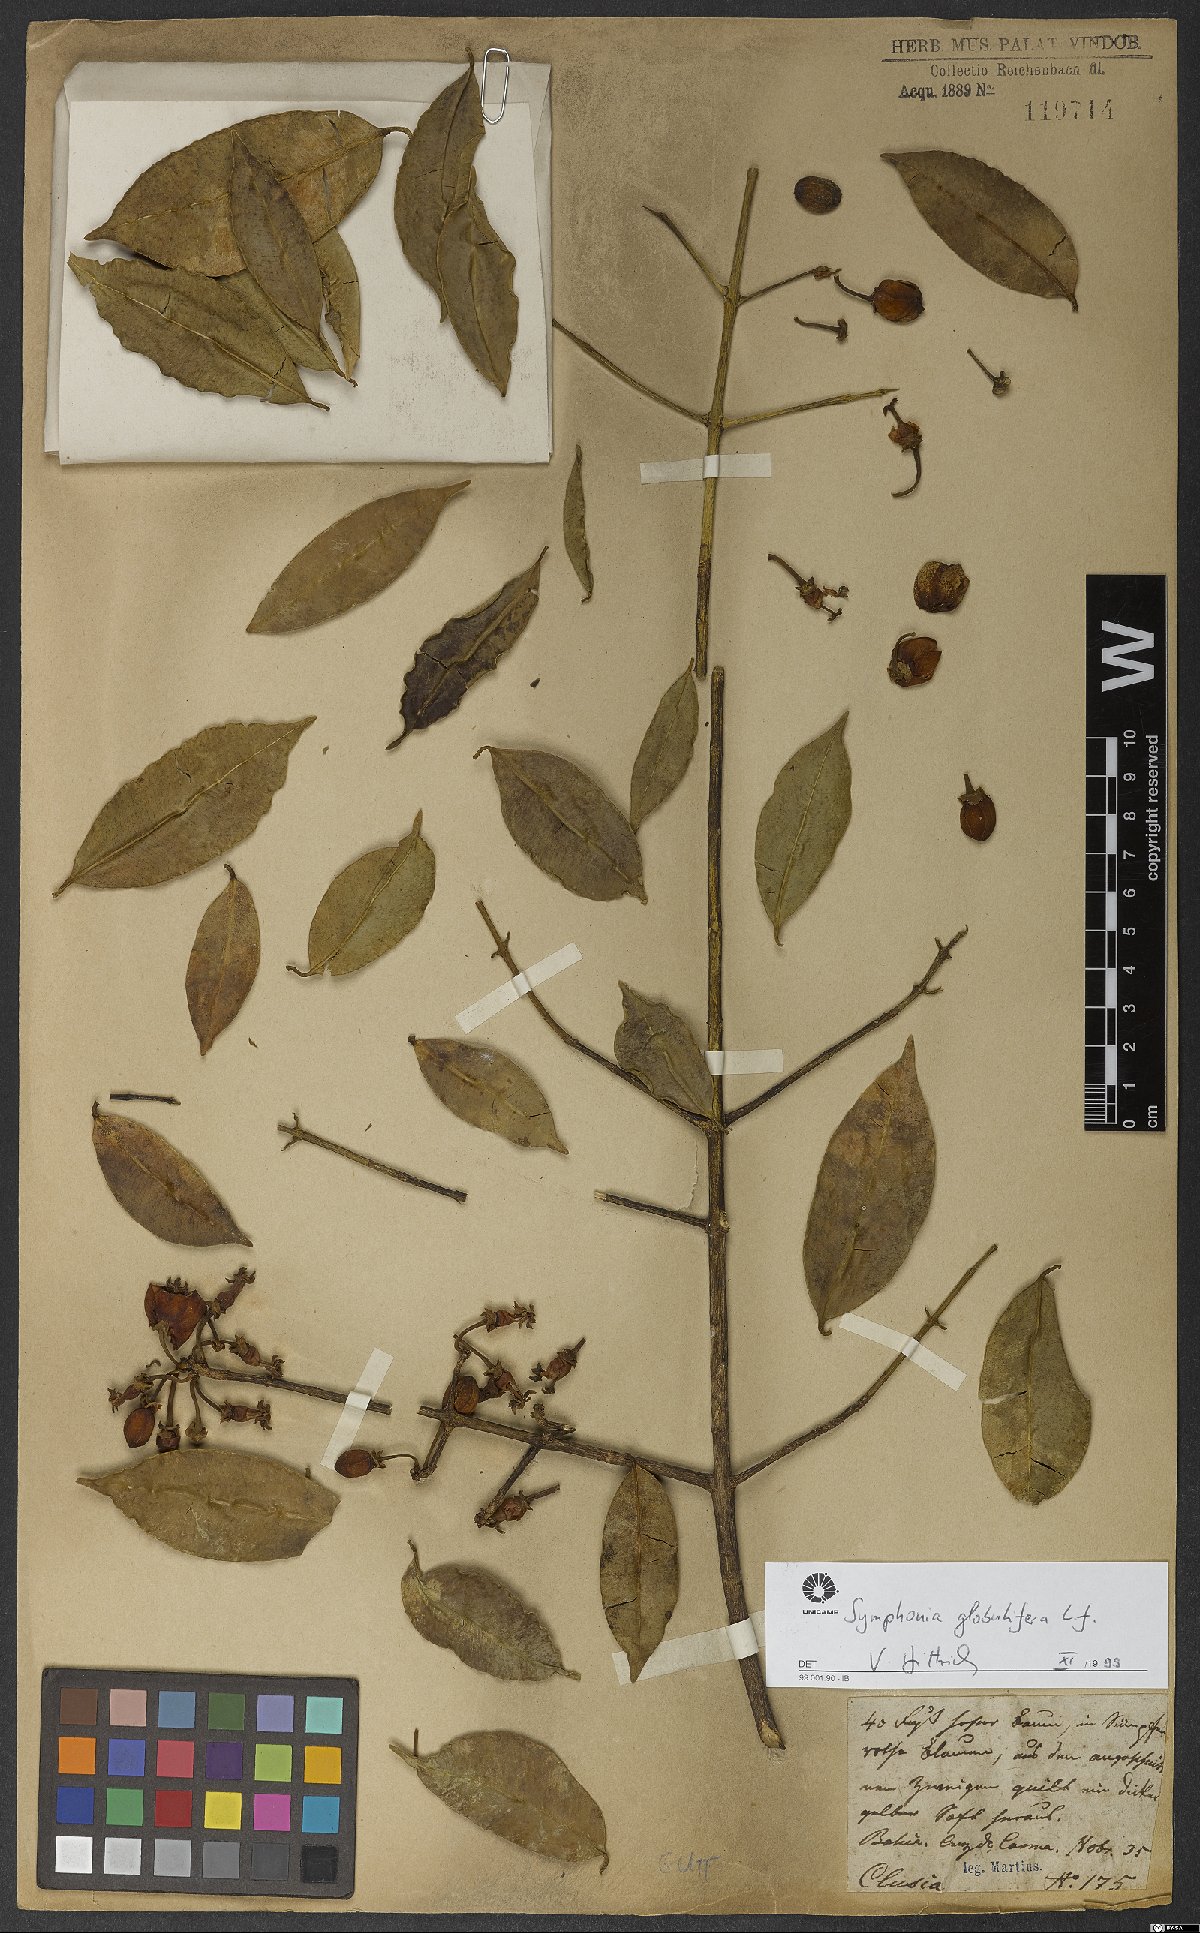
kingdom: Plantae
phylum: Tracheophyta
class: Magnoliopsida
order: Malpighiales
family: Clusiaceae
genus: Symphonia
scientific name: Symphonia globulifera
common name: Boarwood
